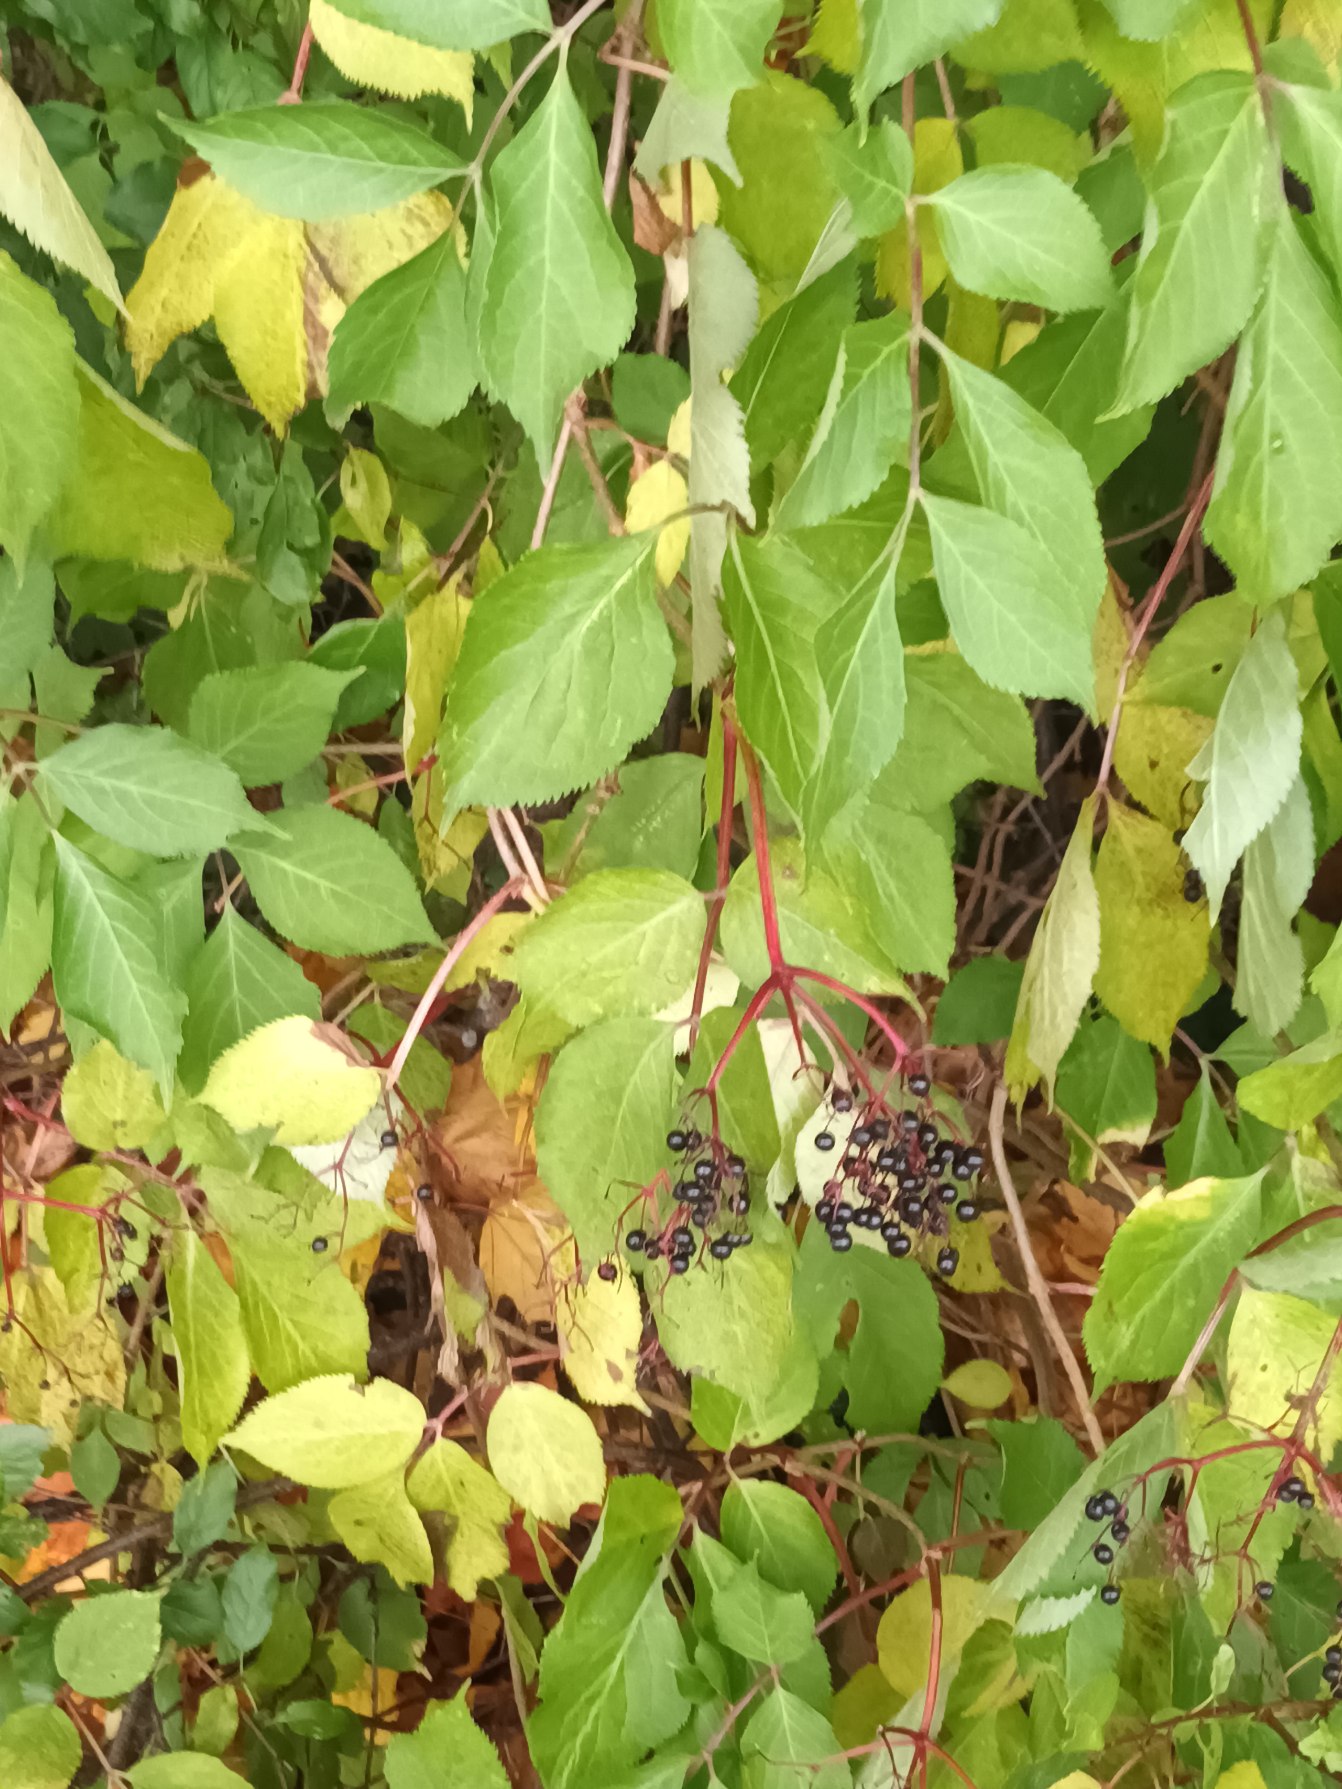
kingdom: Plantae
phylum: Tracheophyta
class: Magnoliopsida
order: Dipsacales
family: Viburnaceae
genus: Sambucus
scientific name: Sambucus nigra
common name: Almindelig hyld
